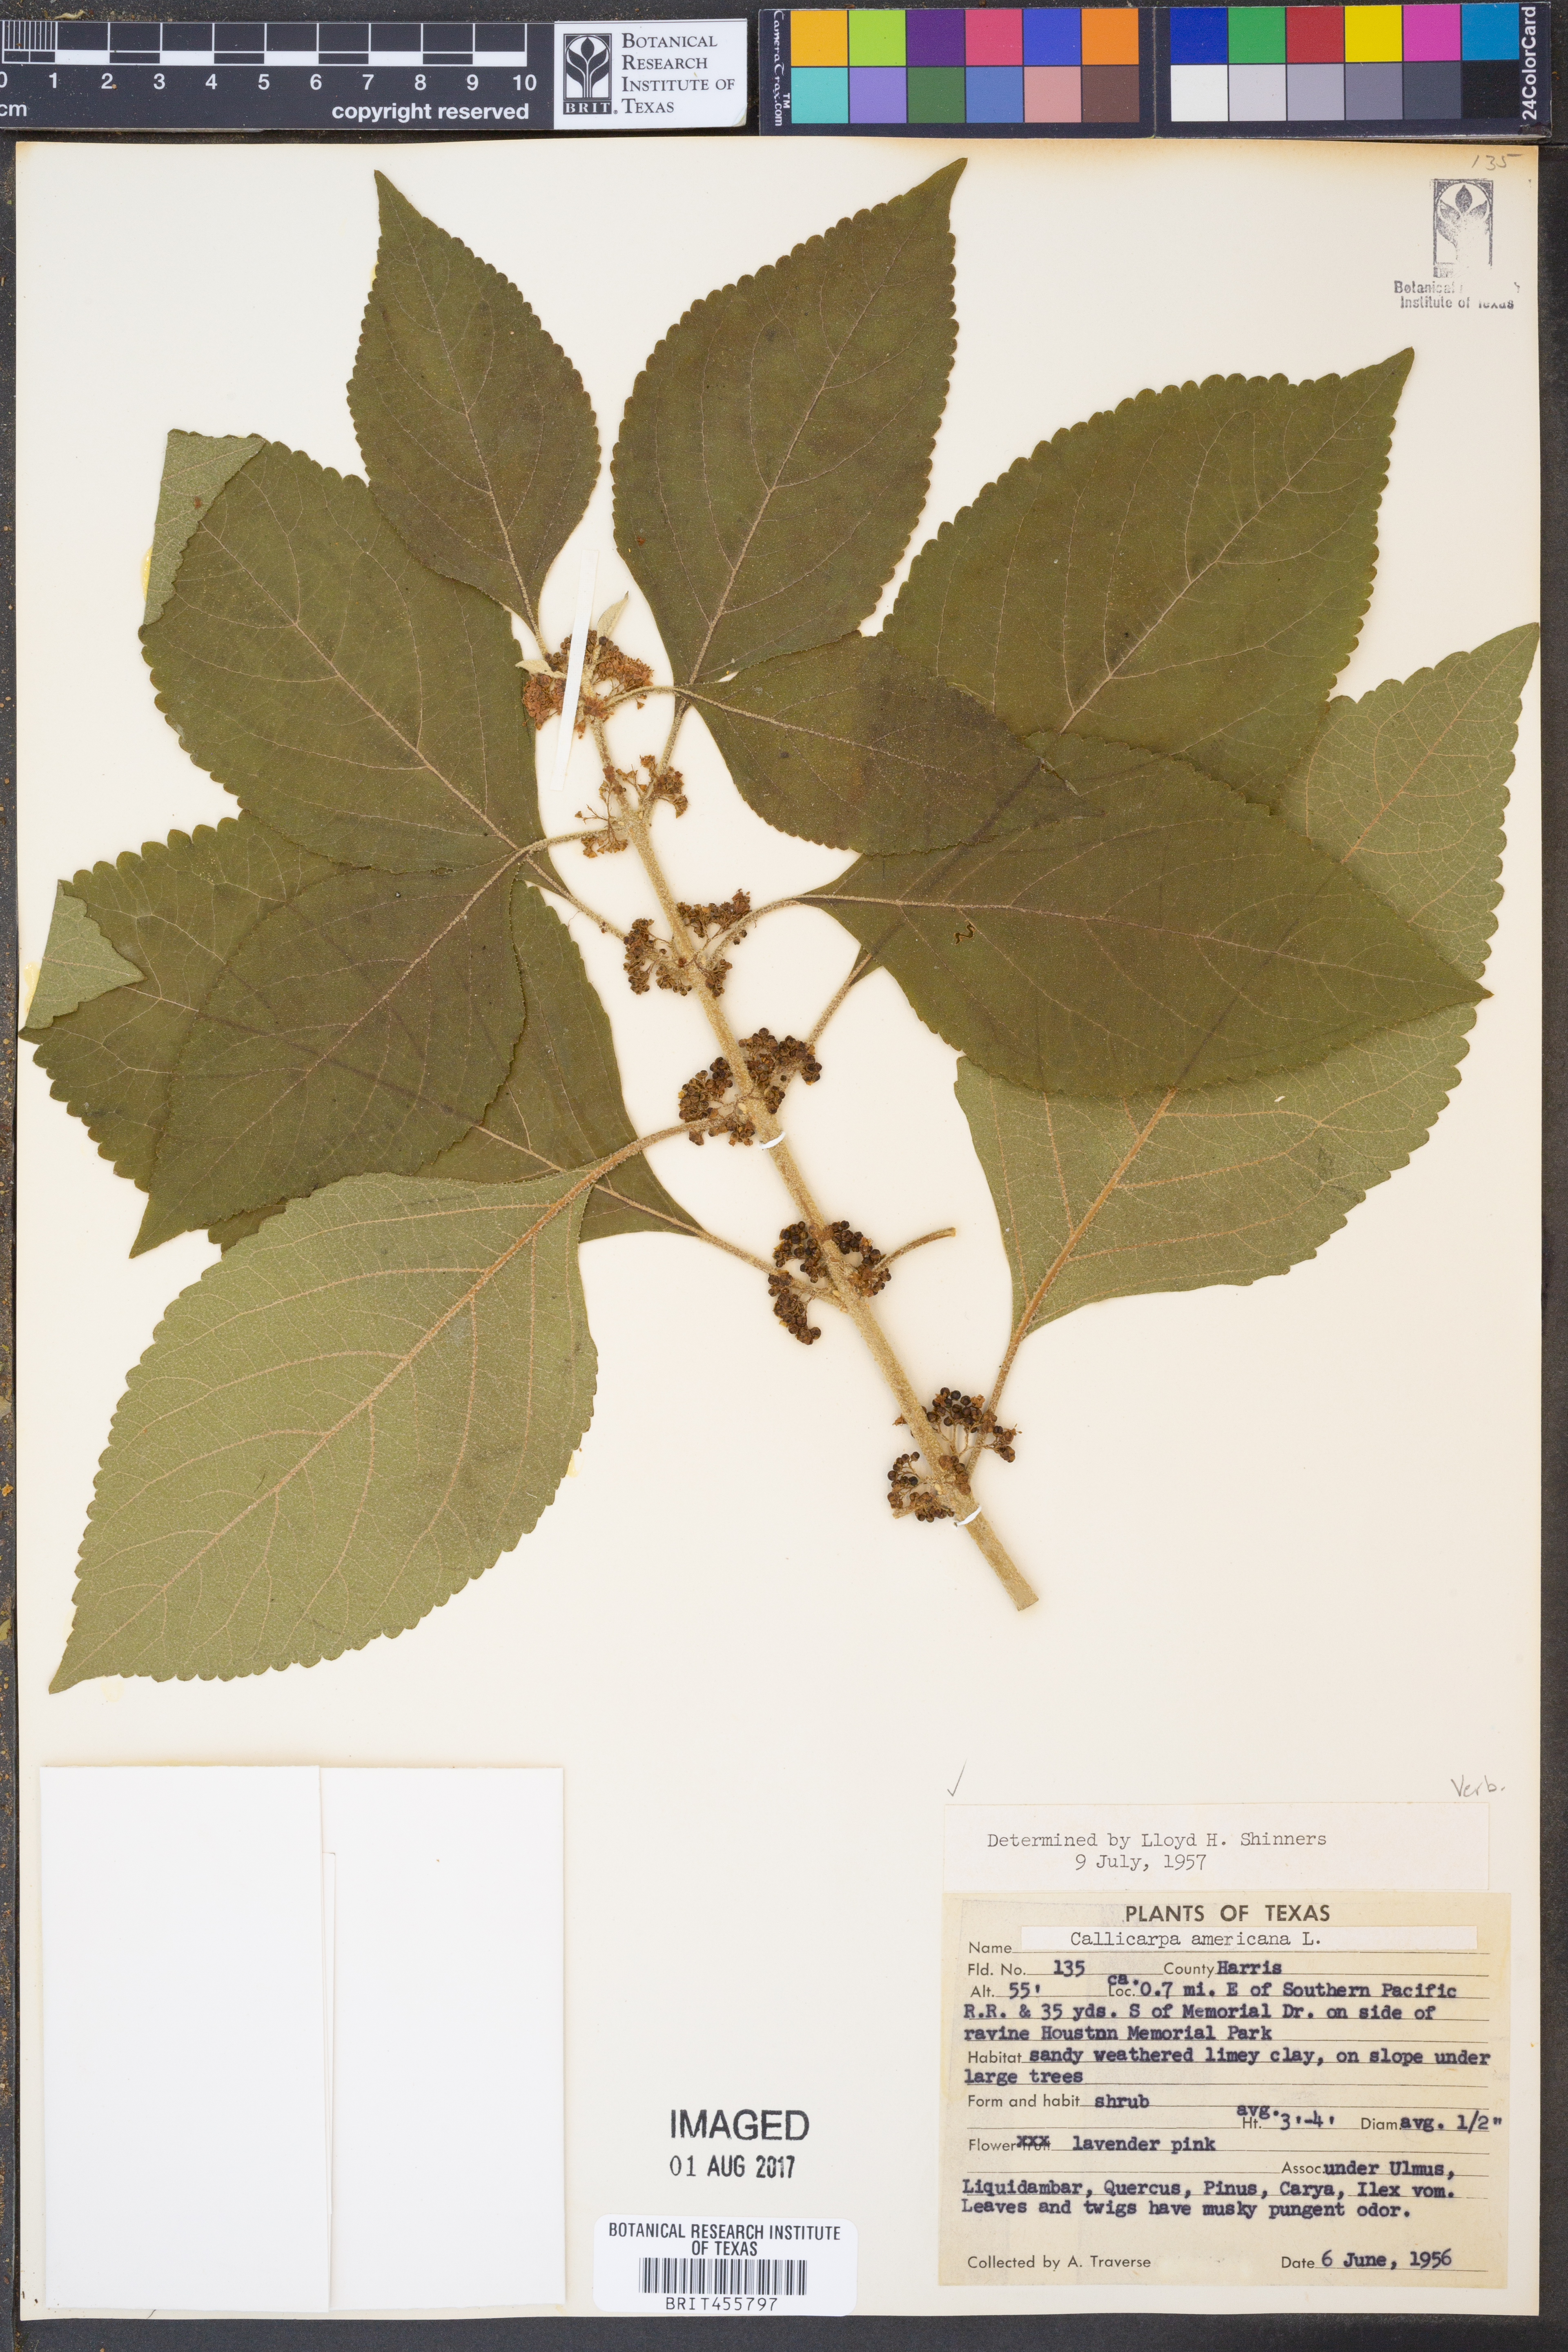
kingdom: Plantae
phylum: Tracheophyta
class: Magnoliopsida
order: Lamiales
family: Lamiaceae
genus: Callicarpa
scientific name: Callicarpa americana
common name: American beautyberry
